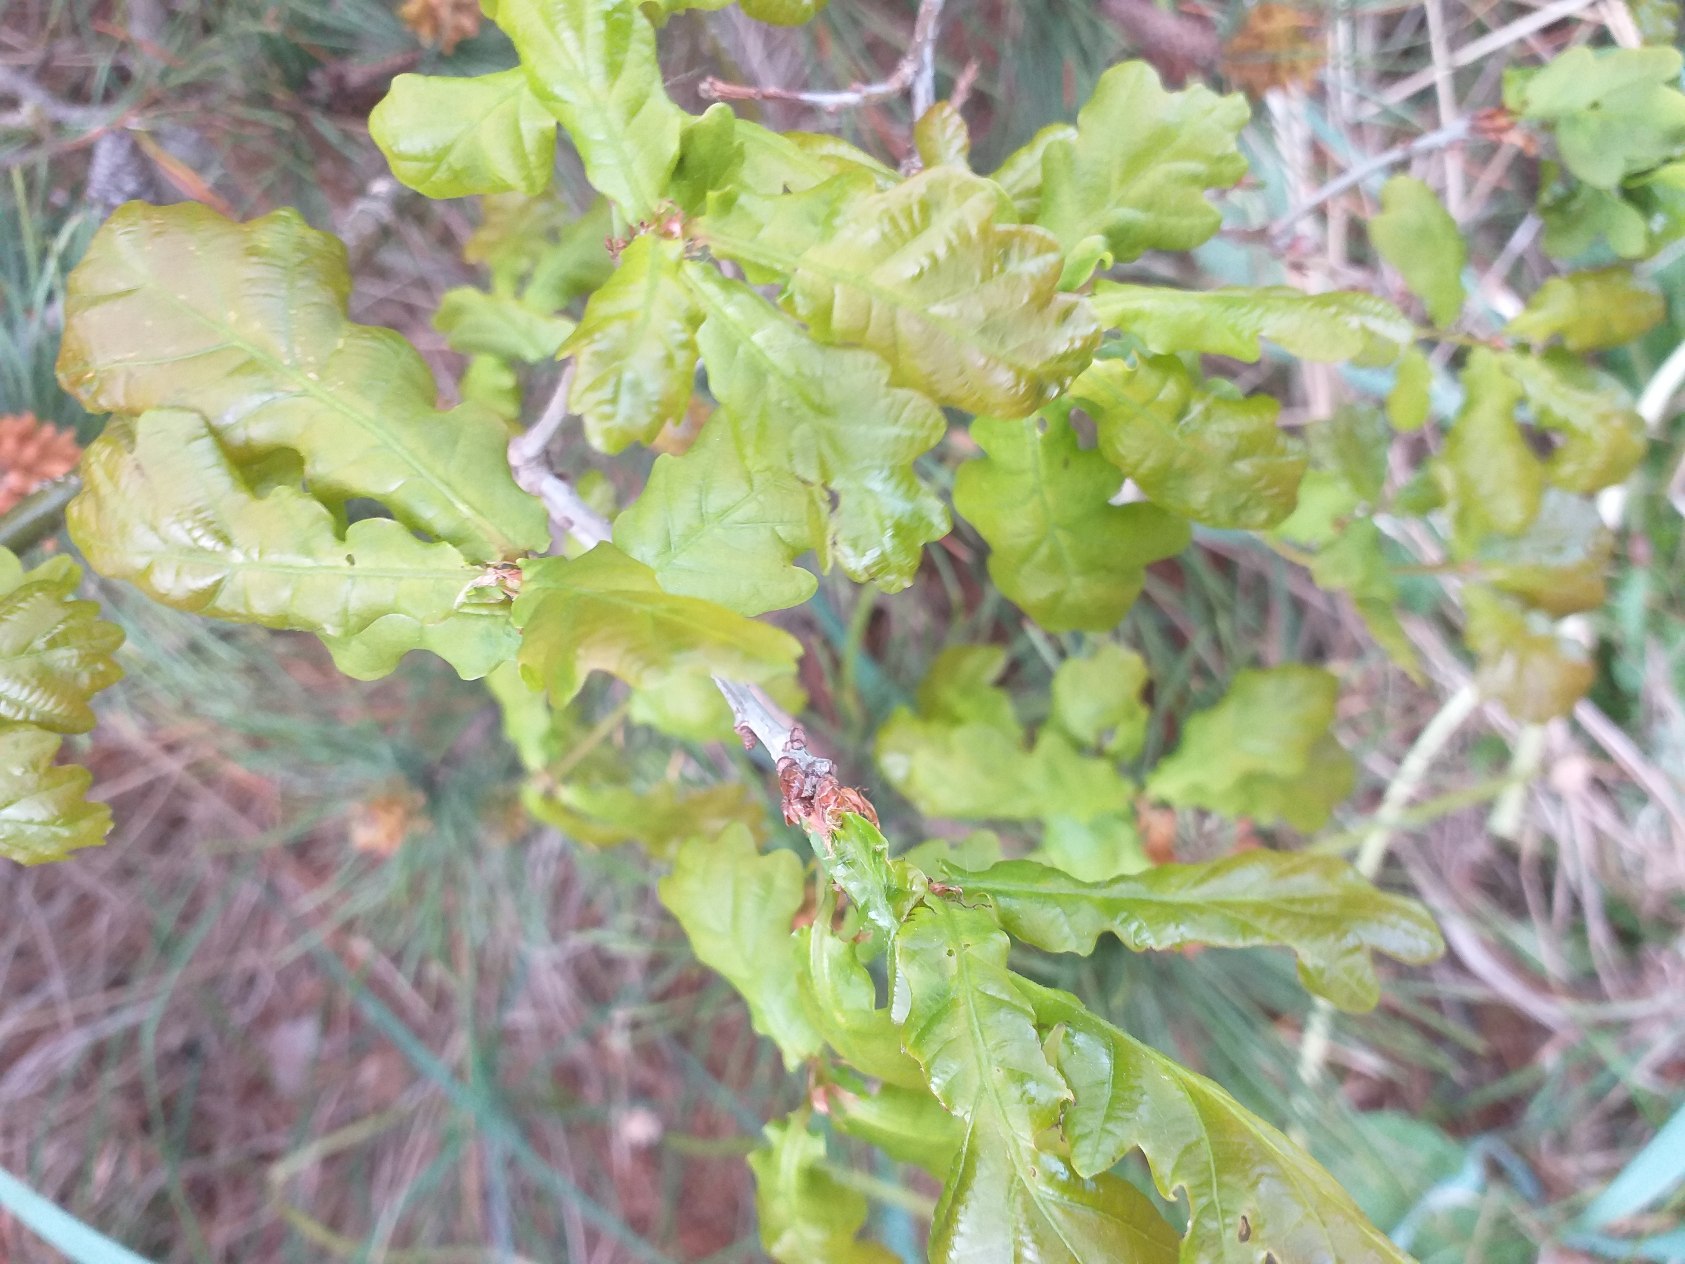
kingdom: Plantae
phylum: Tracheophyta
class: Magnoliopsida
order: Fagales
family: Fagaceae
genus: Quercus
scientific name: Quercus robur
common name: Stilk-eg/almindelig eg
